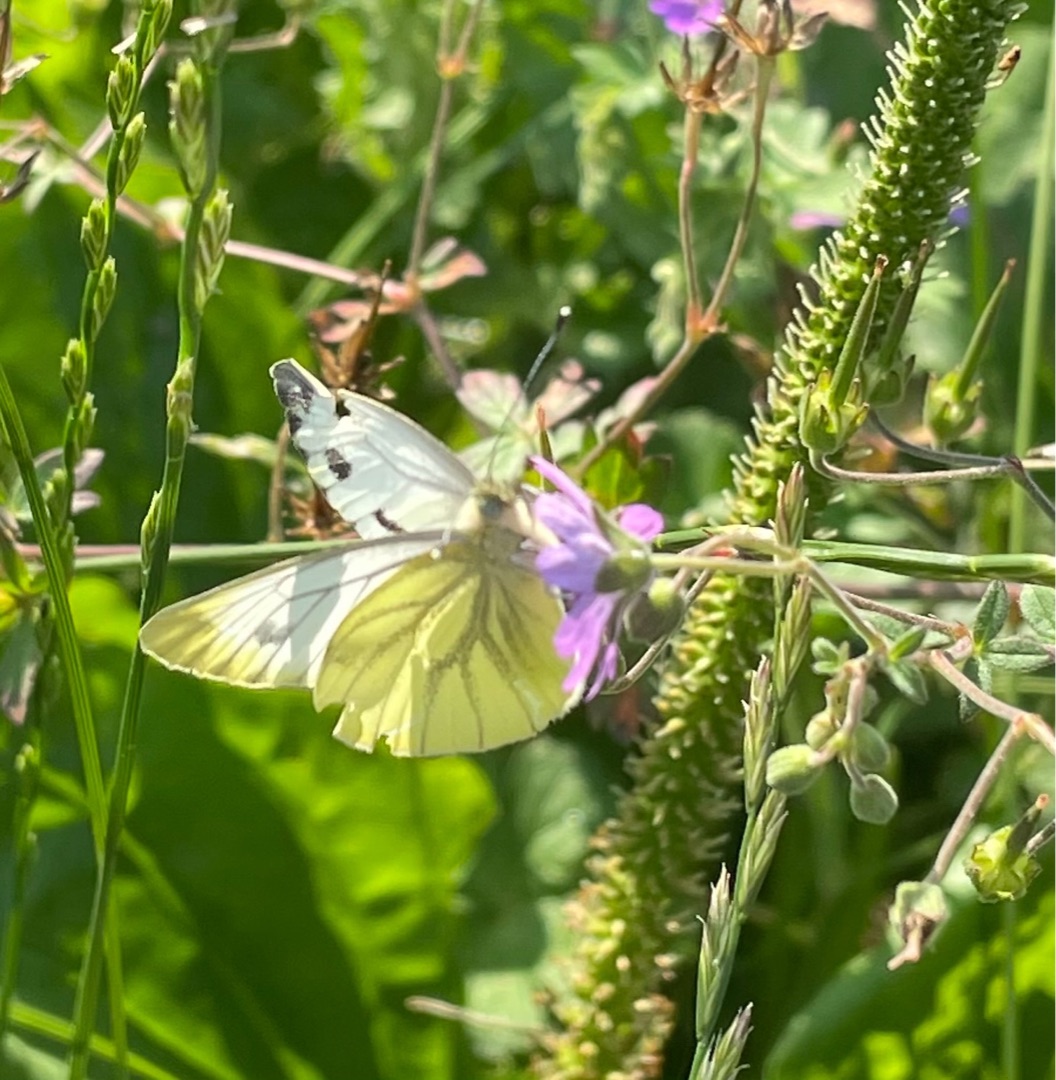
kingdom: Animalia
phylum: Arthropoda
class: Insecta
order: Lepidoptera
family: Pieridae
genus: Pieris
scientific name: Pieris napi
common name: Grønåret kålsommerfugl
